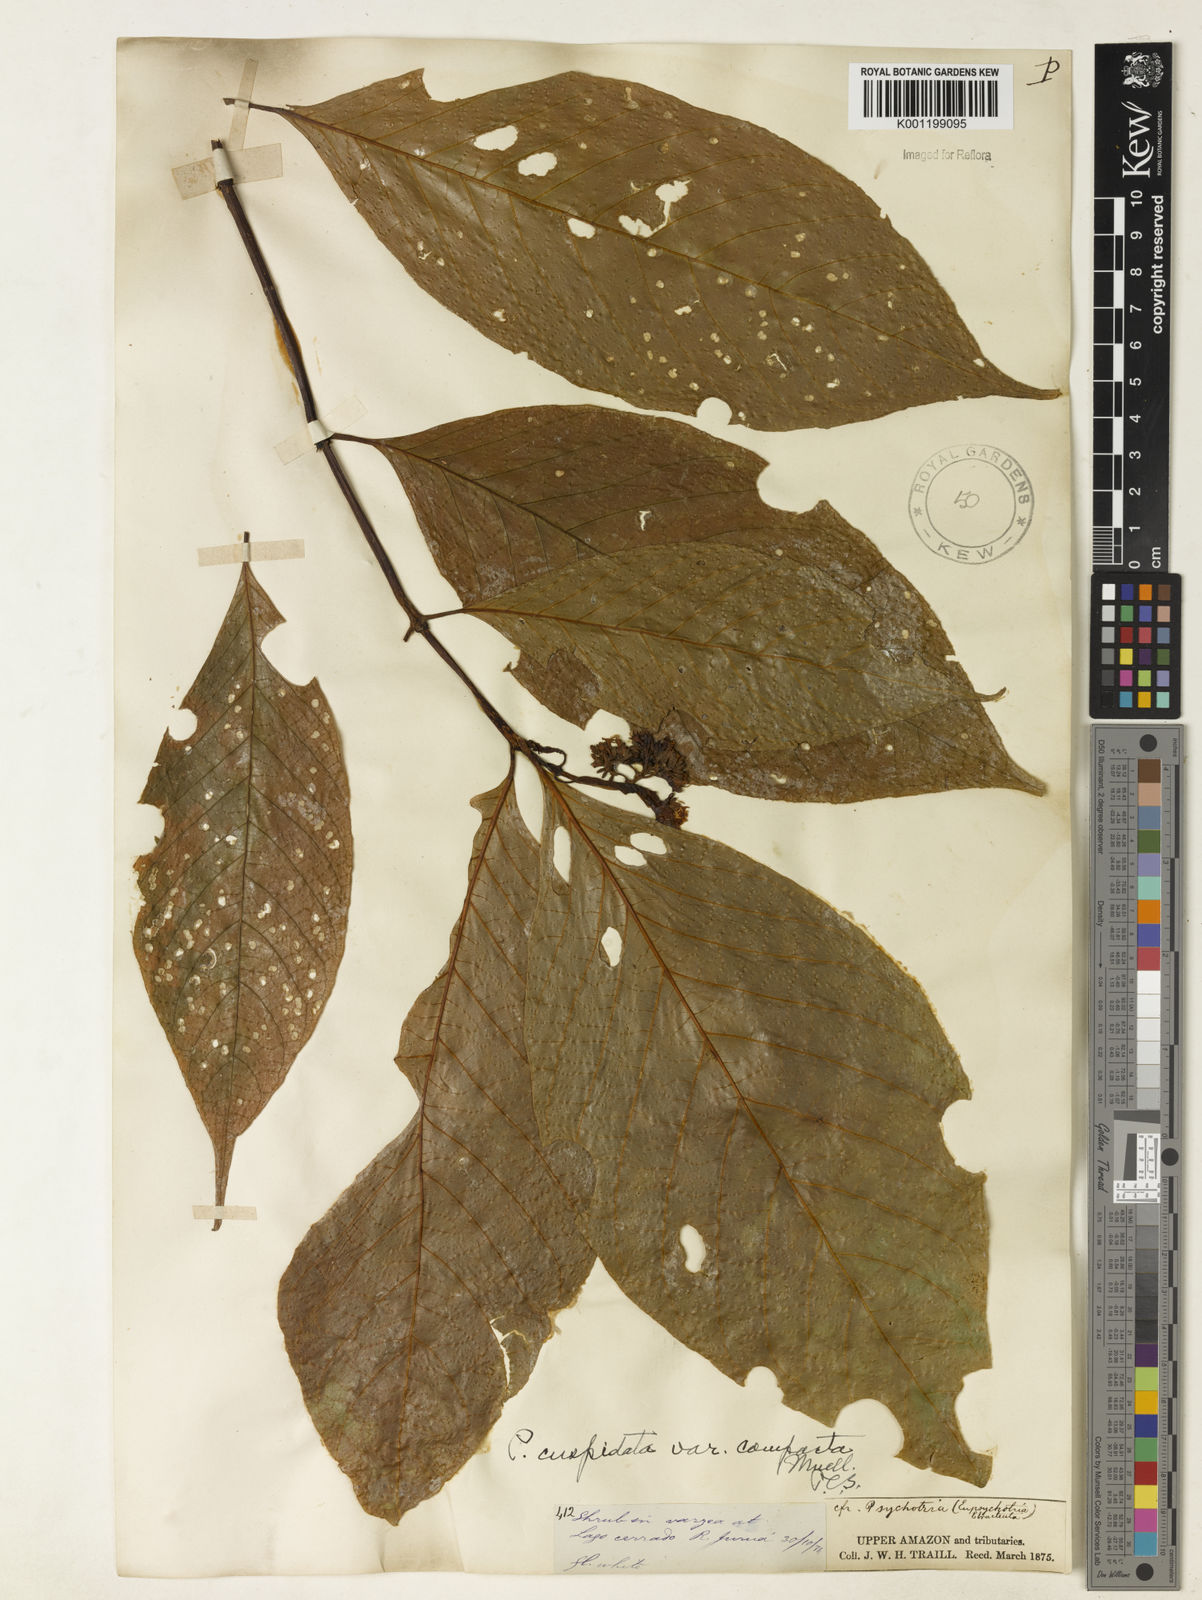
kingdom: Plantae
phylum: Tracheophyta
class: Magnoliopsida
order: Gentianales
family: Rubiaceae
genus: Palicourea
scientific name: Palicourea cuspidata
